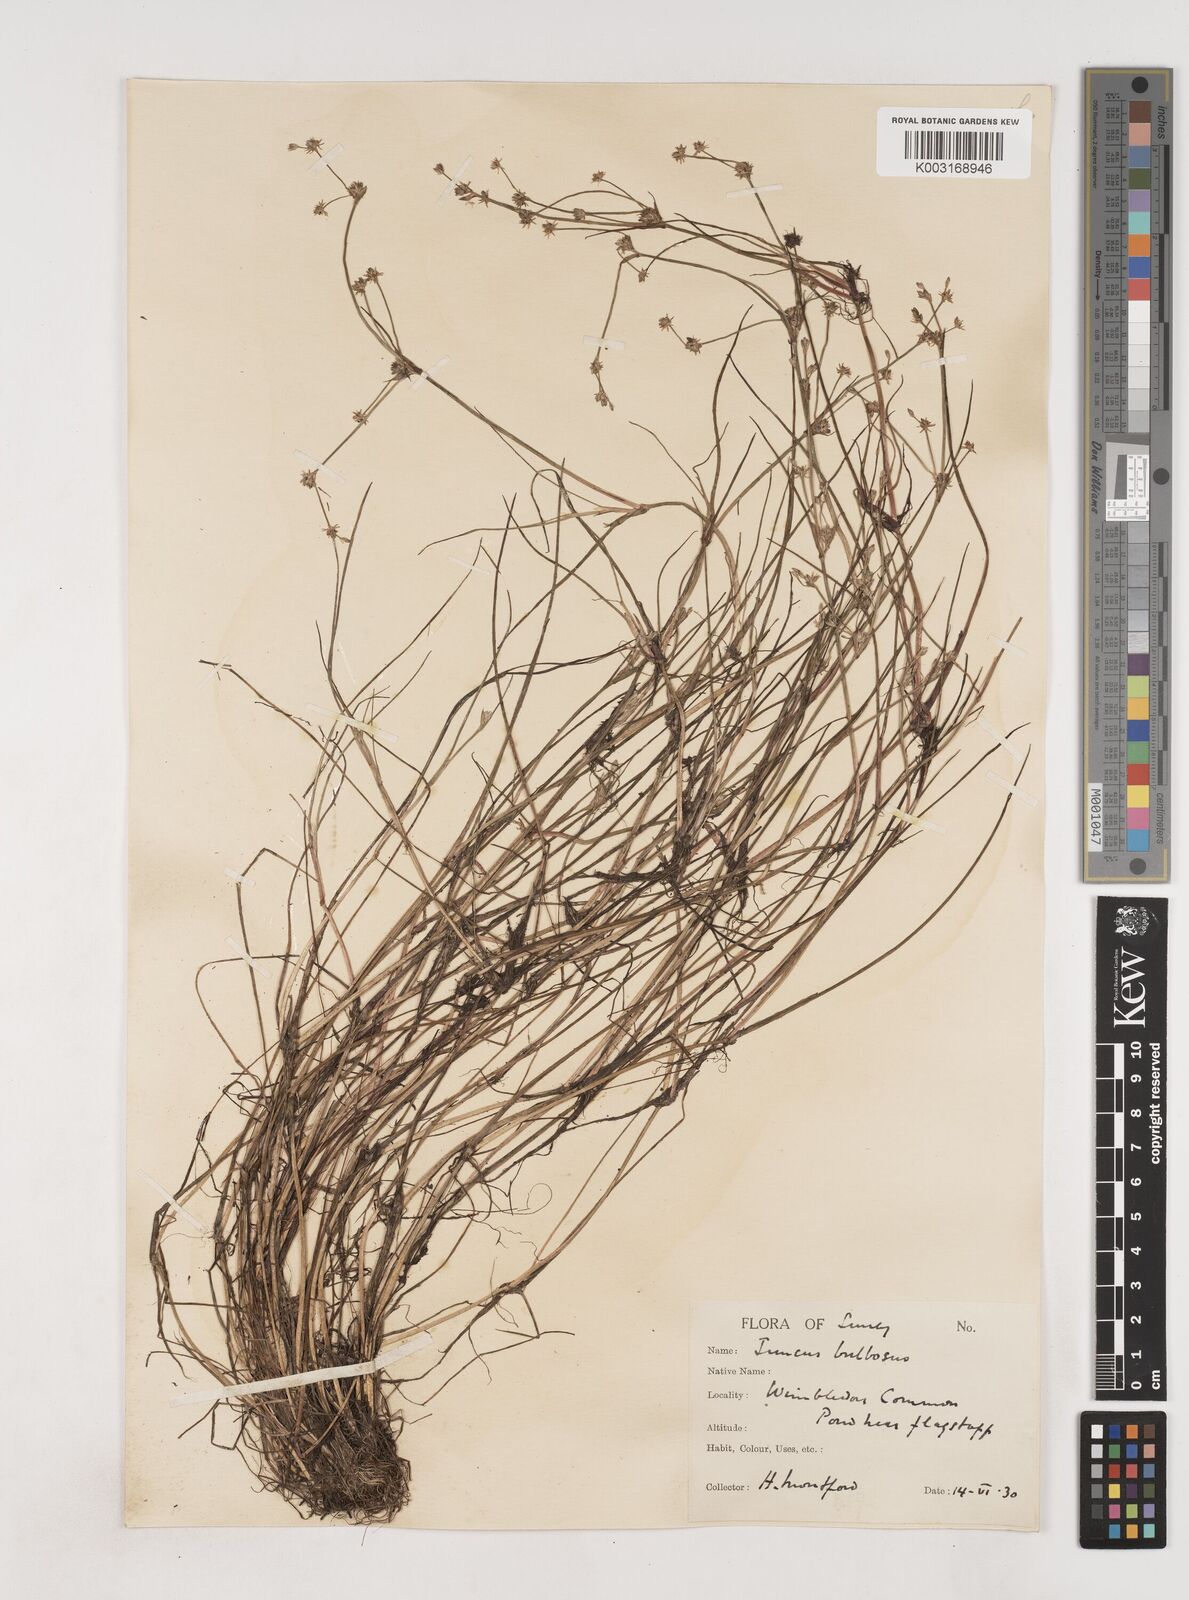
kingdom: Plantae
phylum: Tracheophyta
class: Liliopsida
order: Poales
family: Juncaceae
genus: Juncus
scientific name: Juncus bulbosus
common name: Bulbous rush
